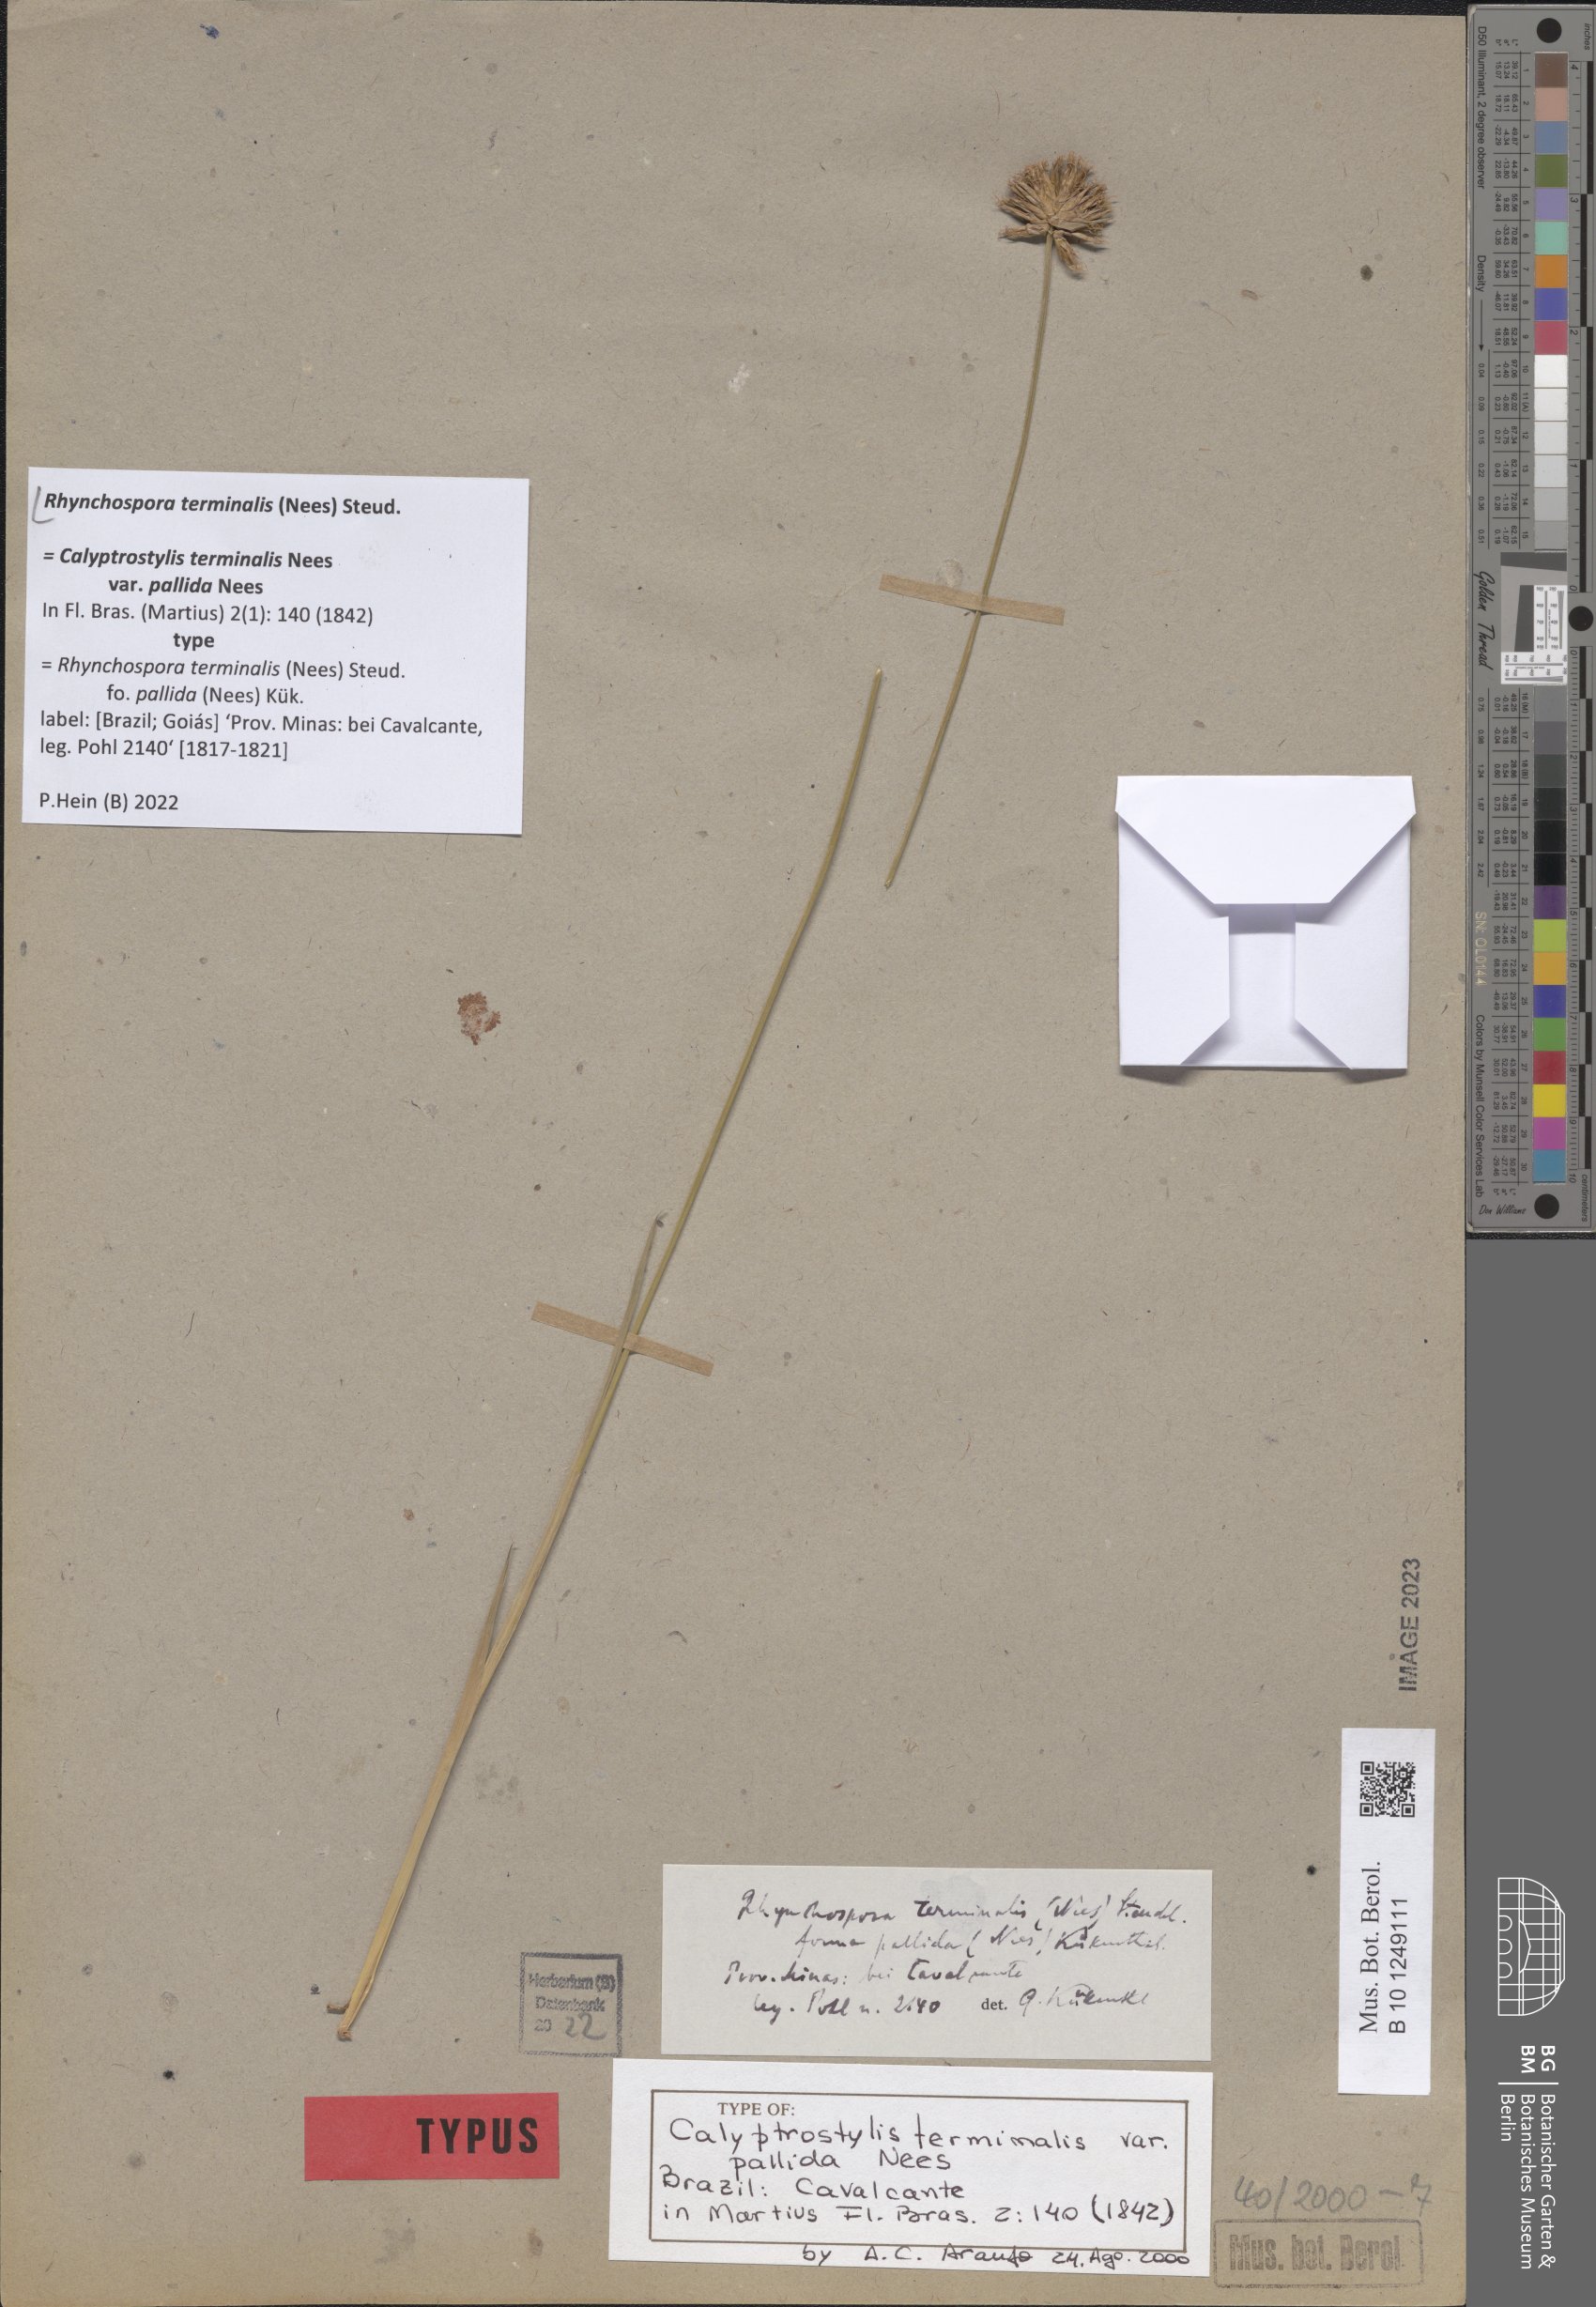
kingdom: Plantae
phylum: Tracheophyta
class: Liliopsida
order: Poales
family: Cyperaceae
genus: Rhynchospora
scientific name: Rhynchospora terminalis
